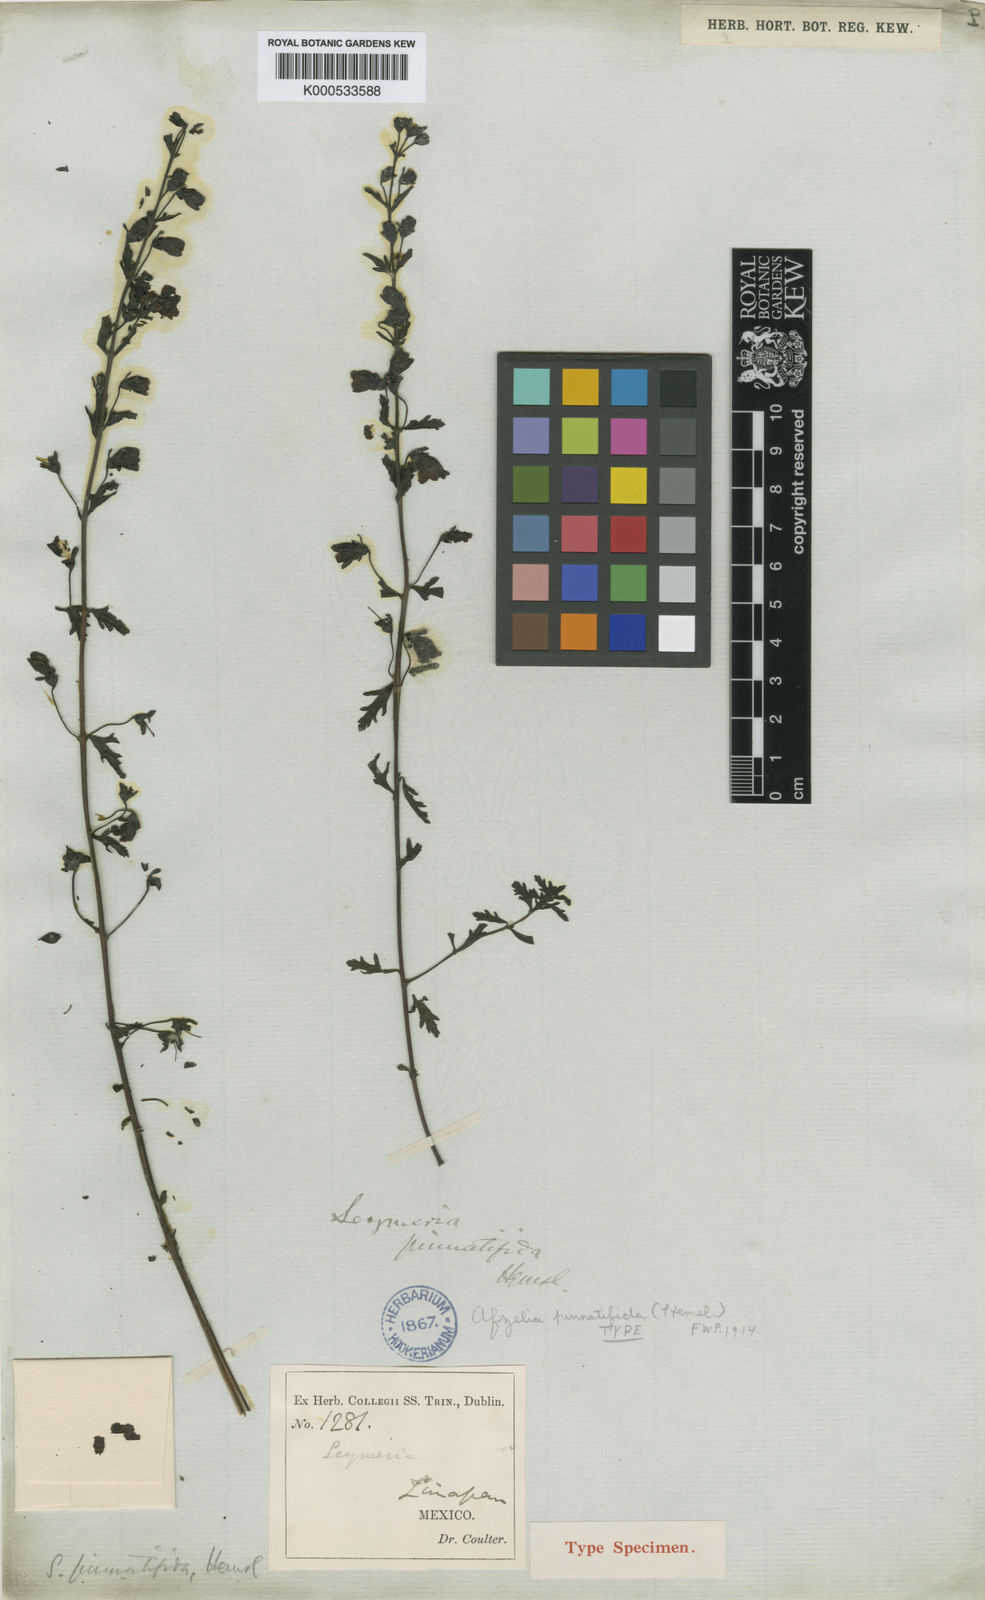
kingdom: Plantae
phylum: Tracheophyta
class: Magnoliopsida
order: Lamiales
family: Orobanchaceae
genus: Seymeria
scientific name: Seymeria decurva
